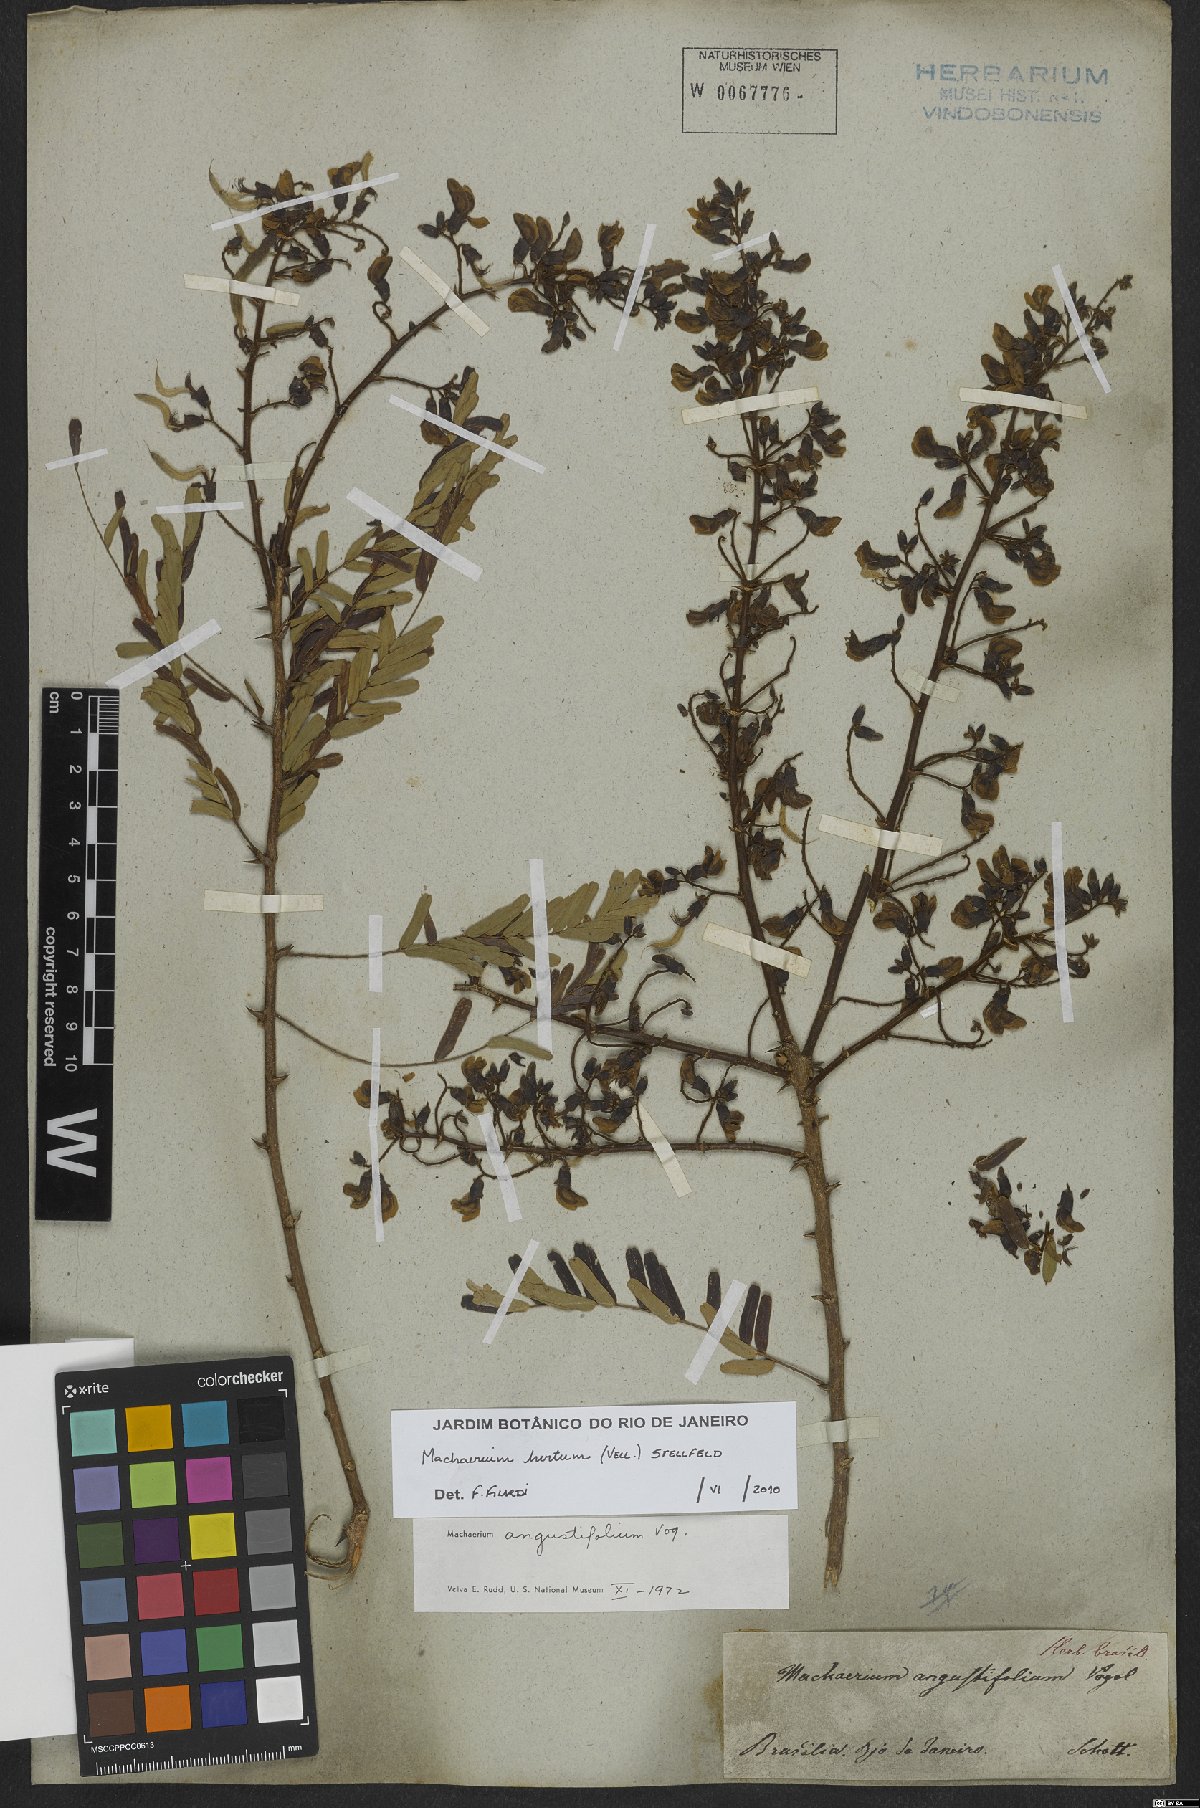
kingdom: Plantae
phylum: Tracheophyta
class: Magnoliopsida
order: Fabales
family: Fabaceae
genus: Machaerium
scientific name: Machaerium hirtum
